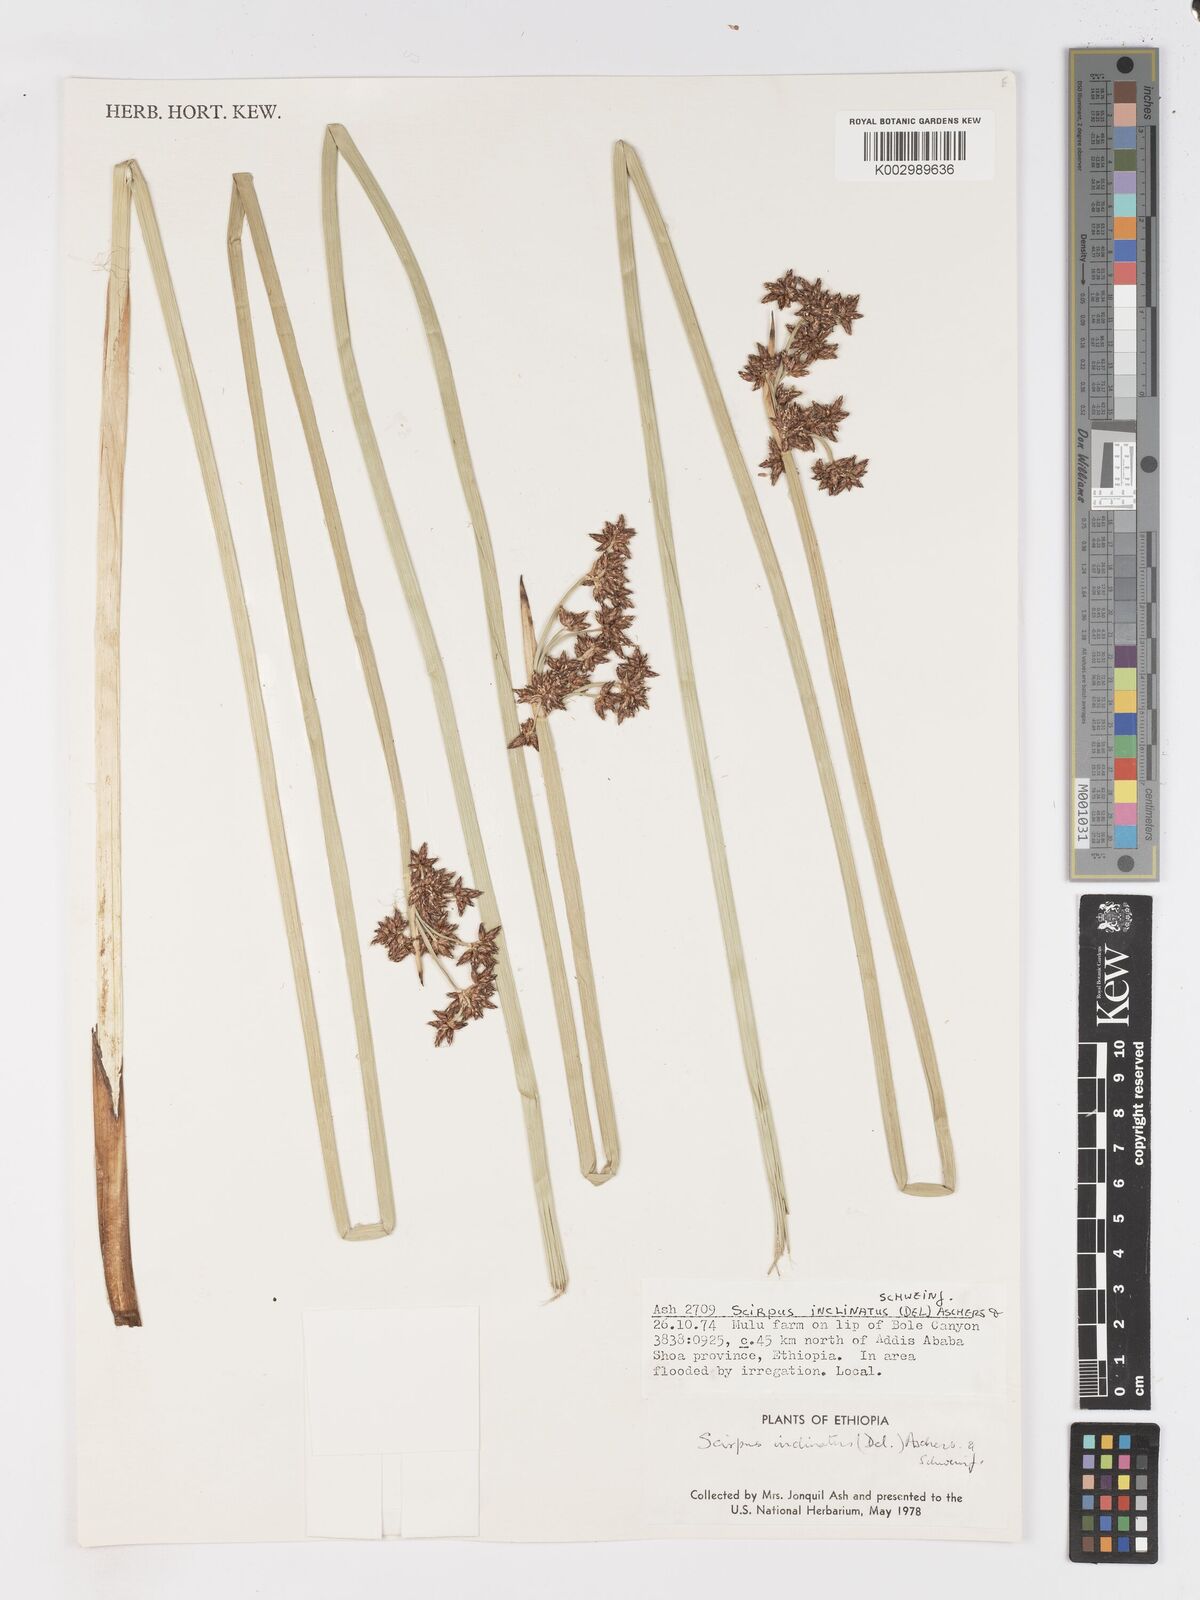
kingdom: Plantae
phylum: Tracheophyta
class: Liliopsida
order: Poales
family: Cyperaceae
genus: Schoenoplectiella
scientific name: Schoenoplectiella brachyceras
